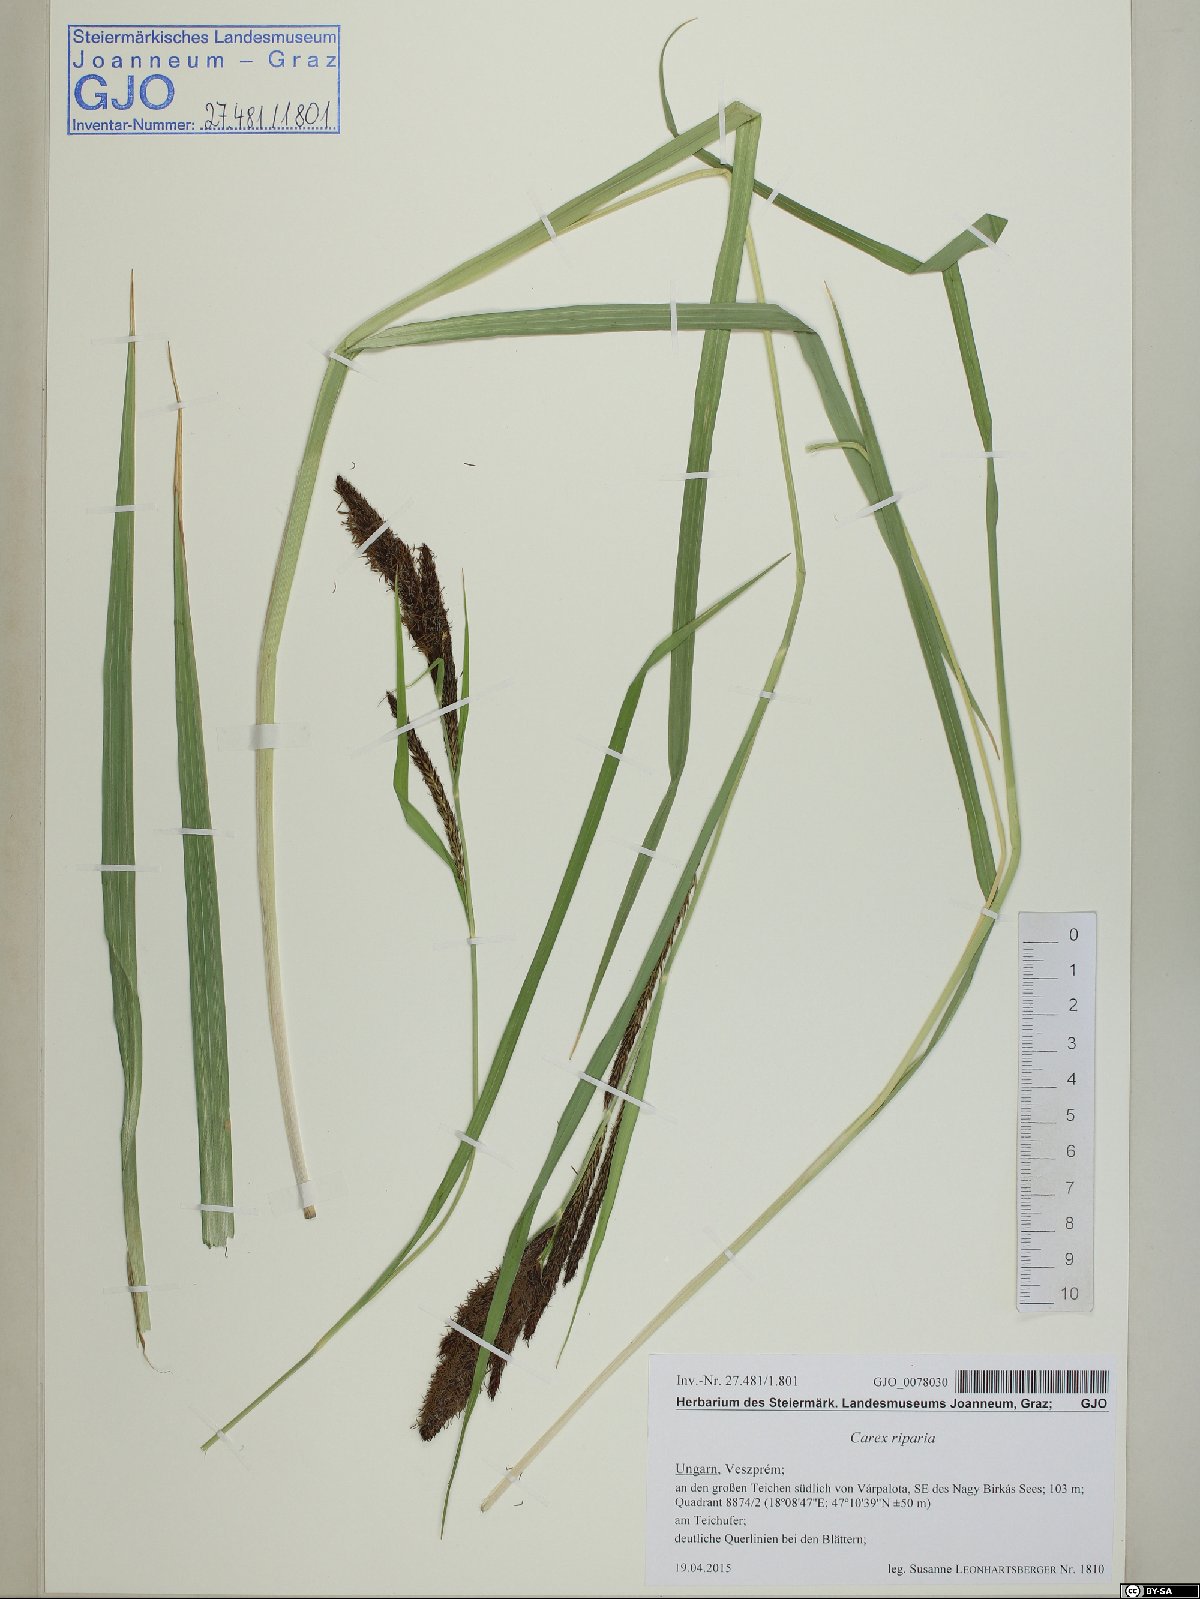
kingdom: Plantae
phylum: Tracheophyta
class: Liliopsida
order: Poales
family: Cyperaceae
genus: Carex
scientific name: Carex riparia
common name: Greater pond-sedge
